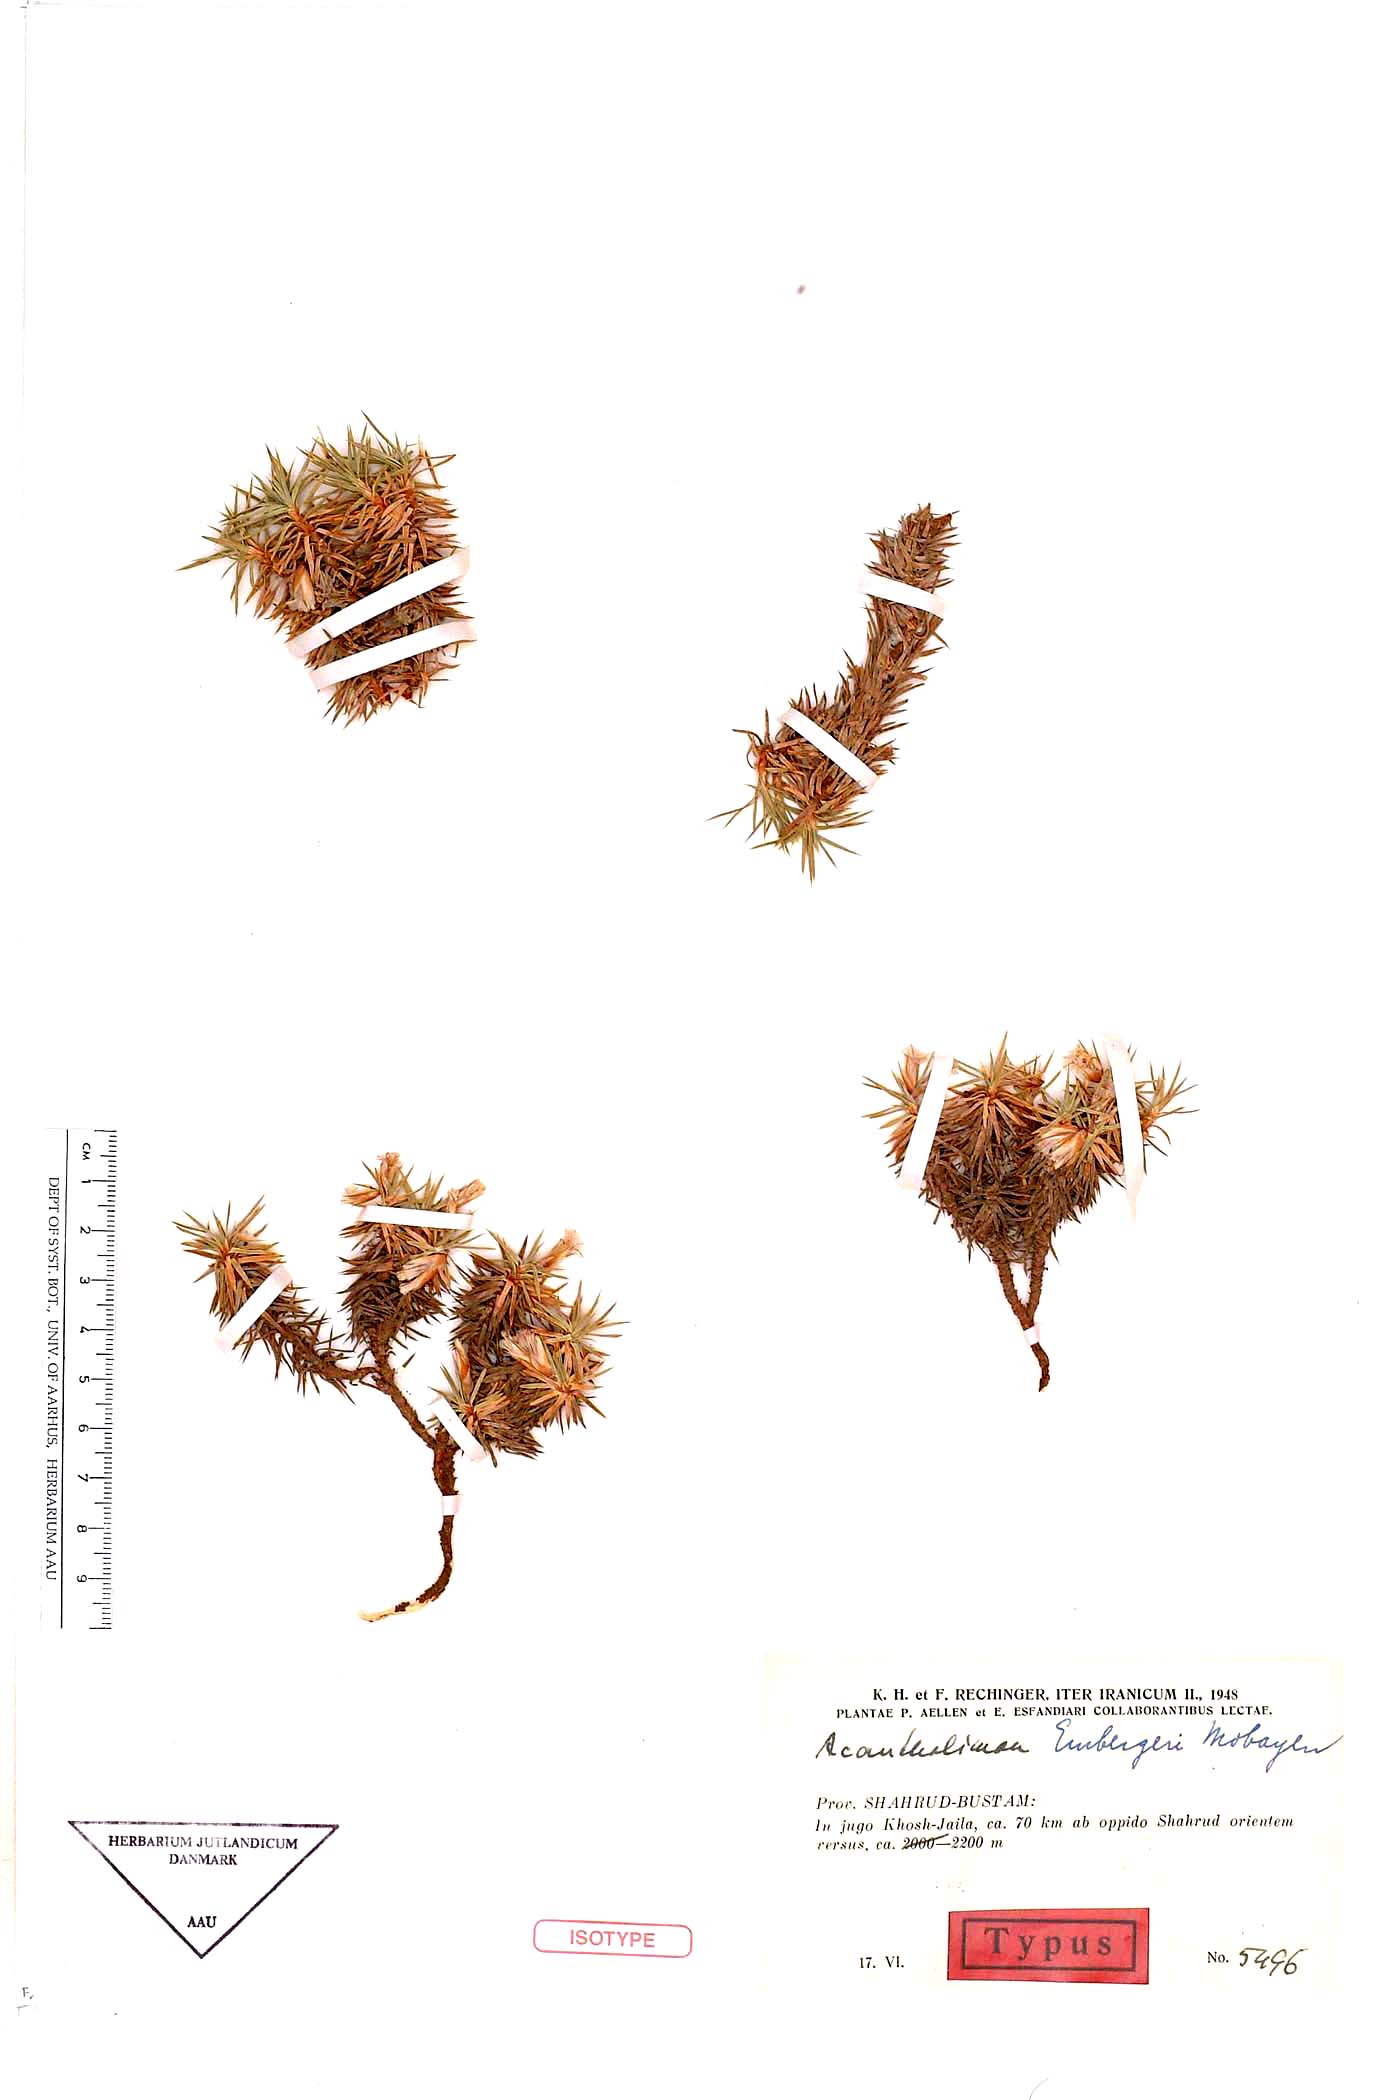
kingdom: Plantae
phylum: Tracheophyta
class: Magnoliopsida
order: Caryophyllales
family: Plumbaginaceae
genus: Acantholimon
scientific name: Acantholimon embergeri
